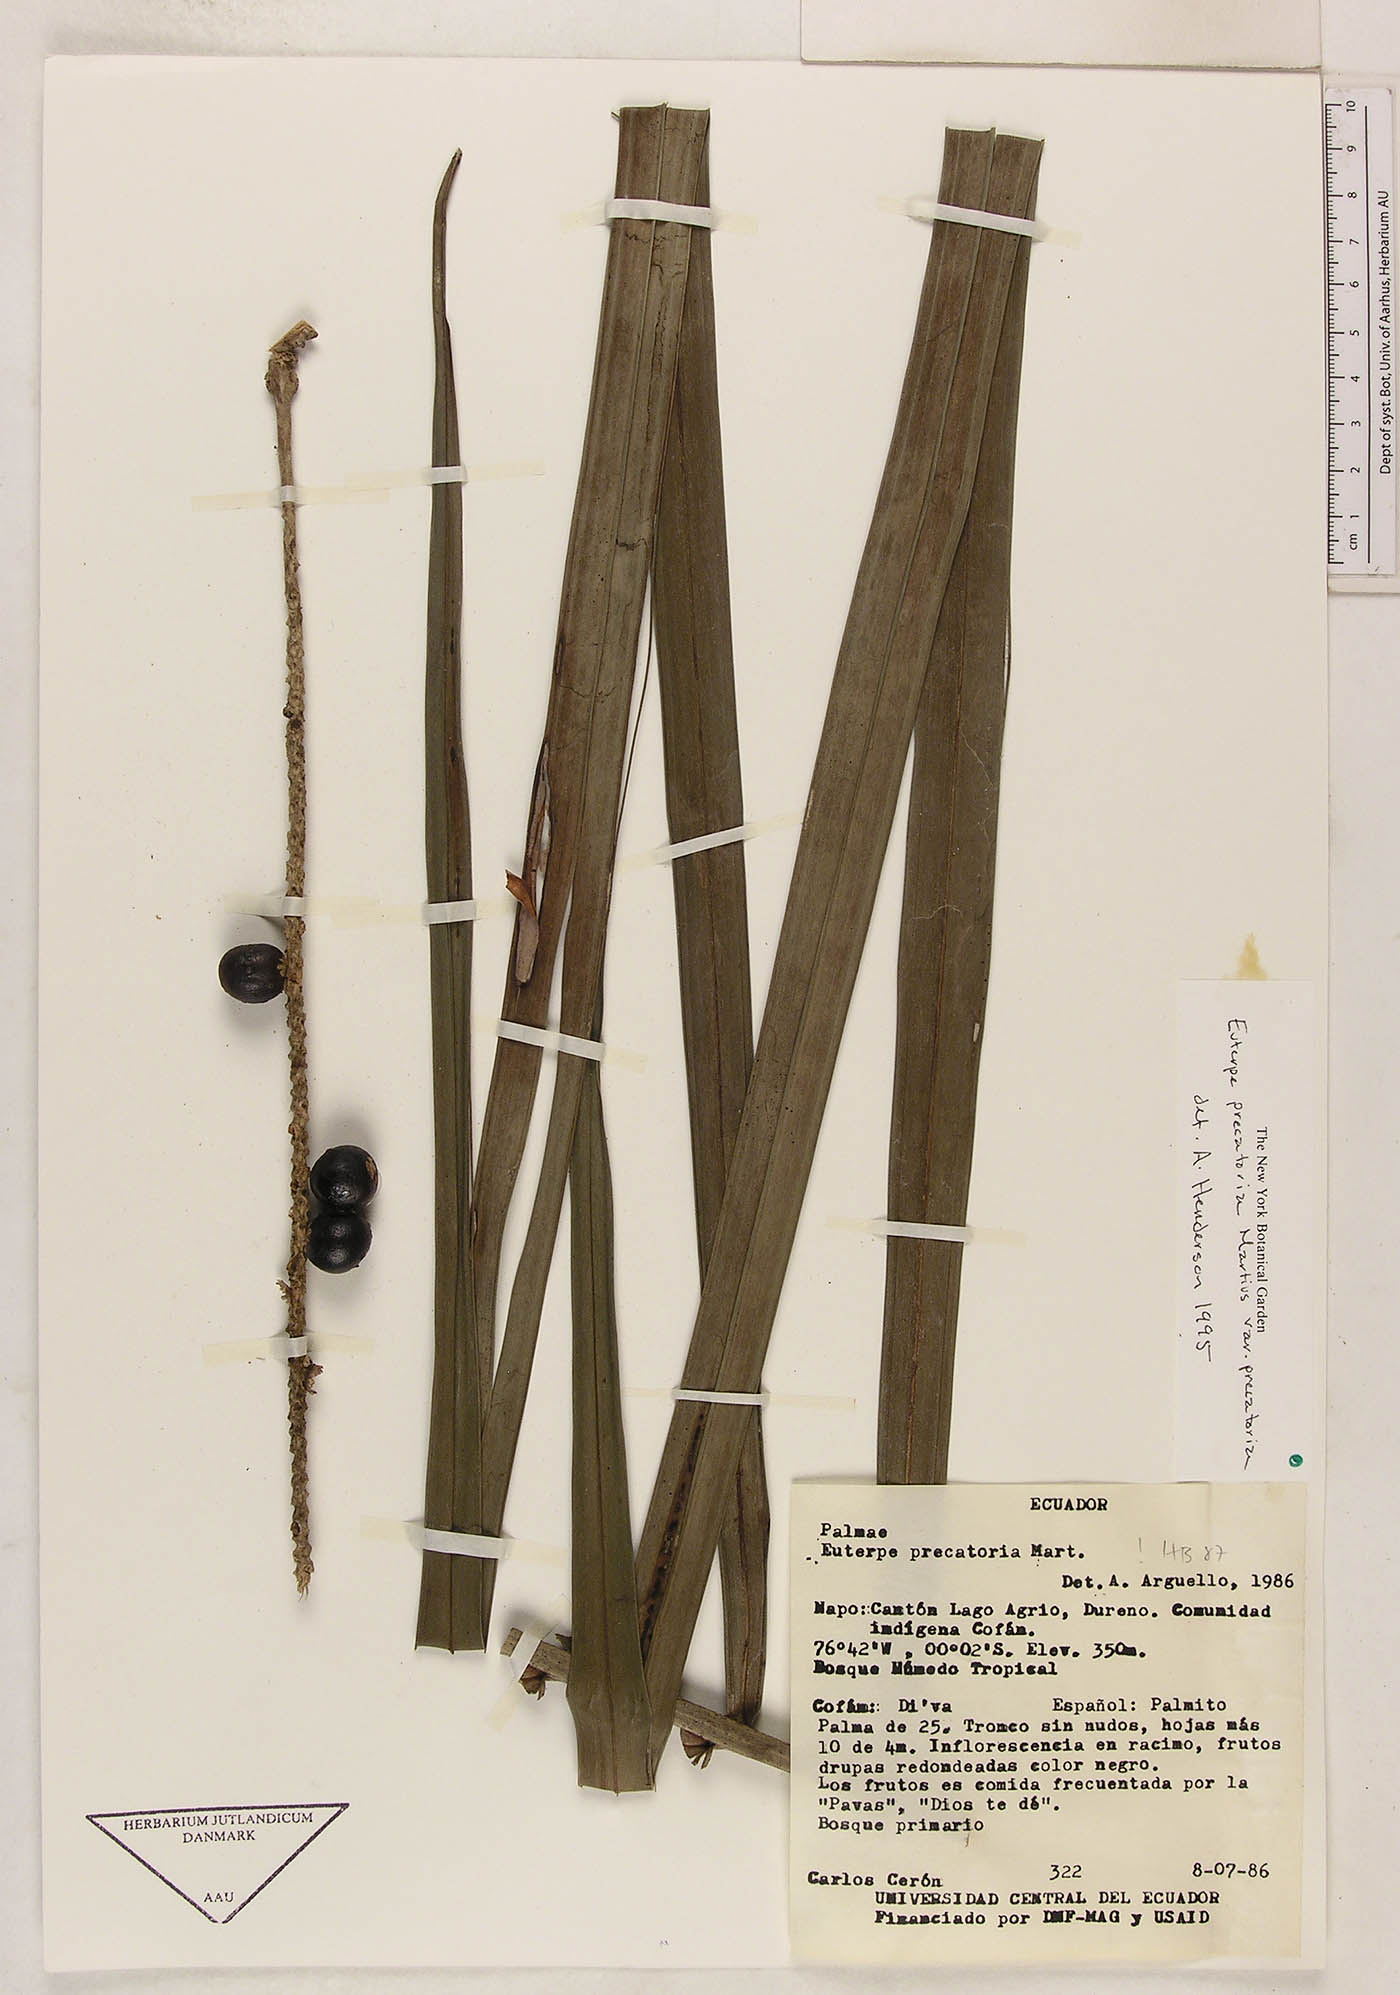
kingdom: Plantae
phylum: Tracheophyta
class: Liliopsida
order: Arecales
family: Arecaceae
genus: Euterpe
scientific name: Euterpe precatoria
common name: Mountain-cabbage
